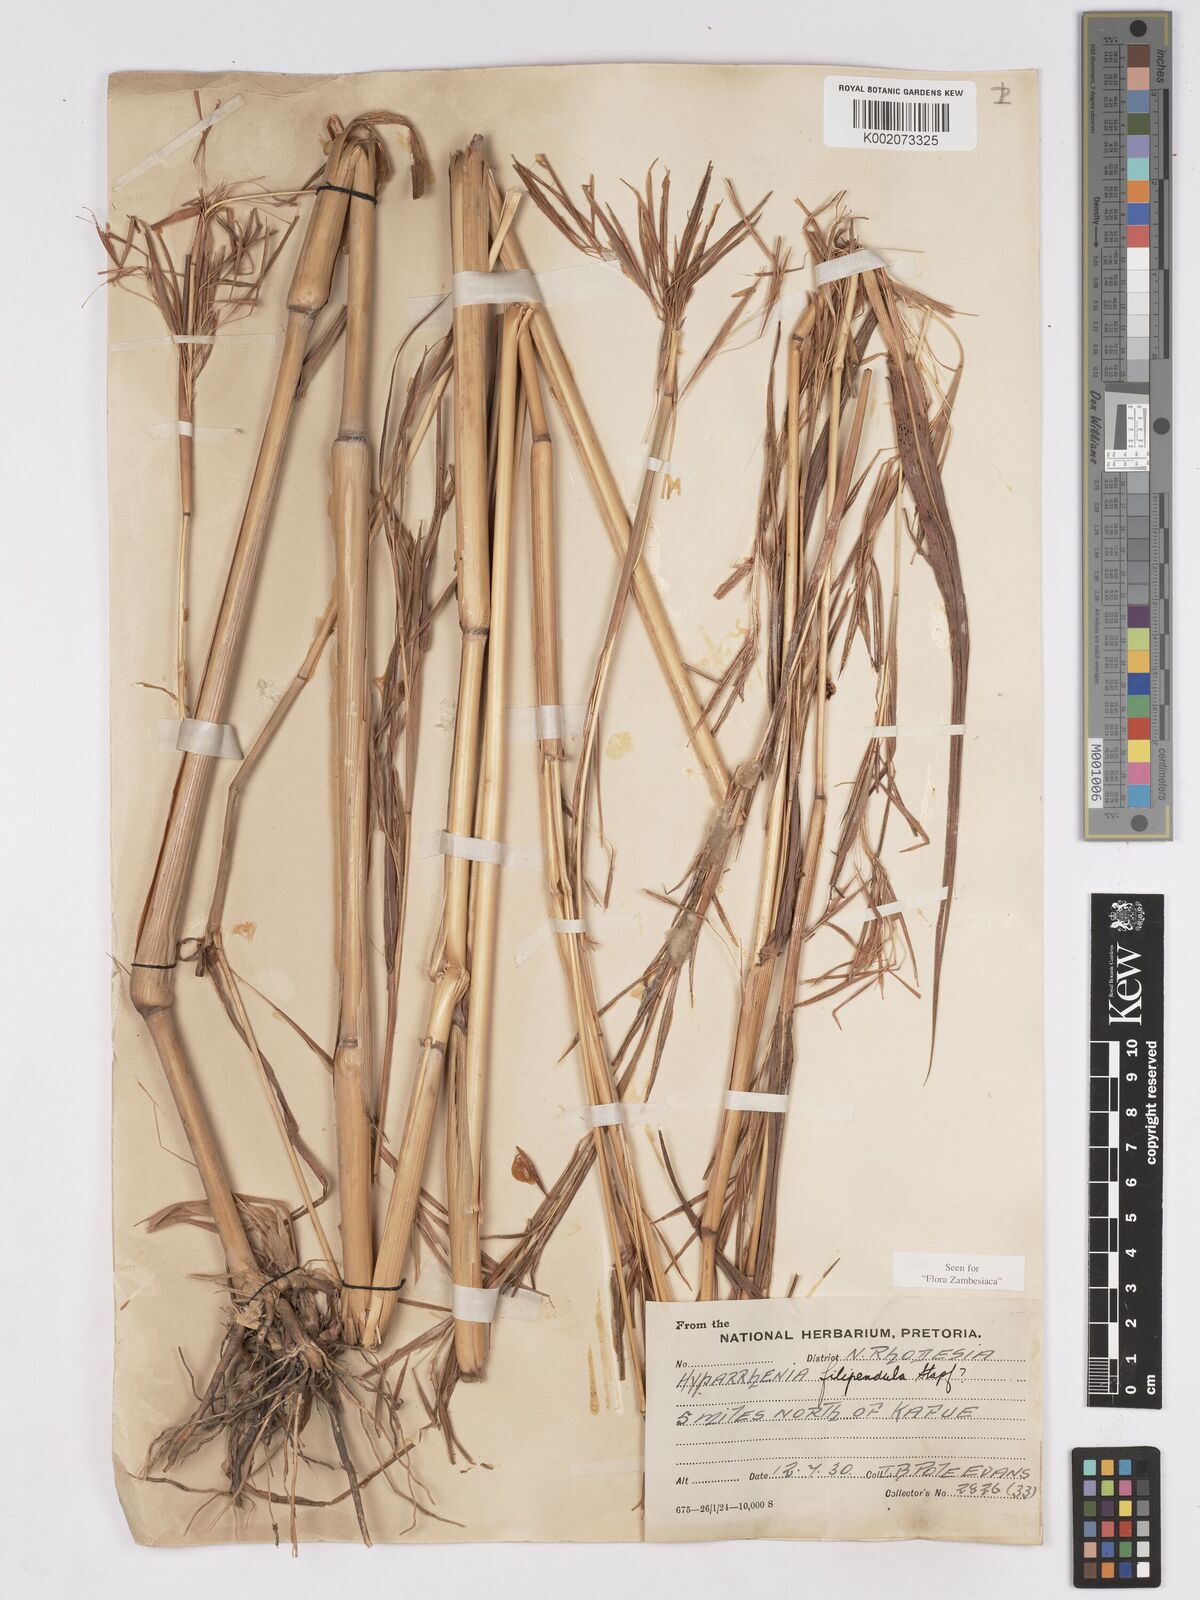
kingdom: Plantae
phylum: Tracheophyta
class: Liliopsida
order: Poales
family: Poaceae
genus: Hyparrhenia
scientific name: Hyparrhenia filipendula
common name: Tambookie grass
